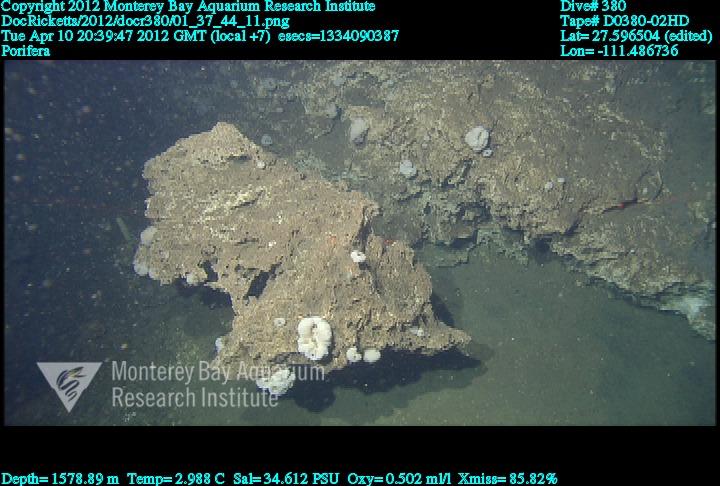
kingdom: Animalia
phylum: Porifera
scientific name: Porifera
